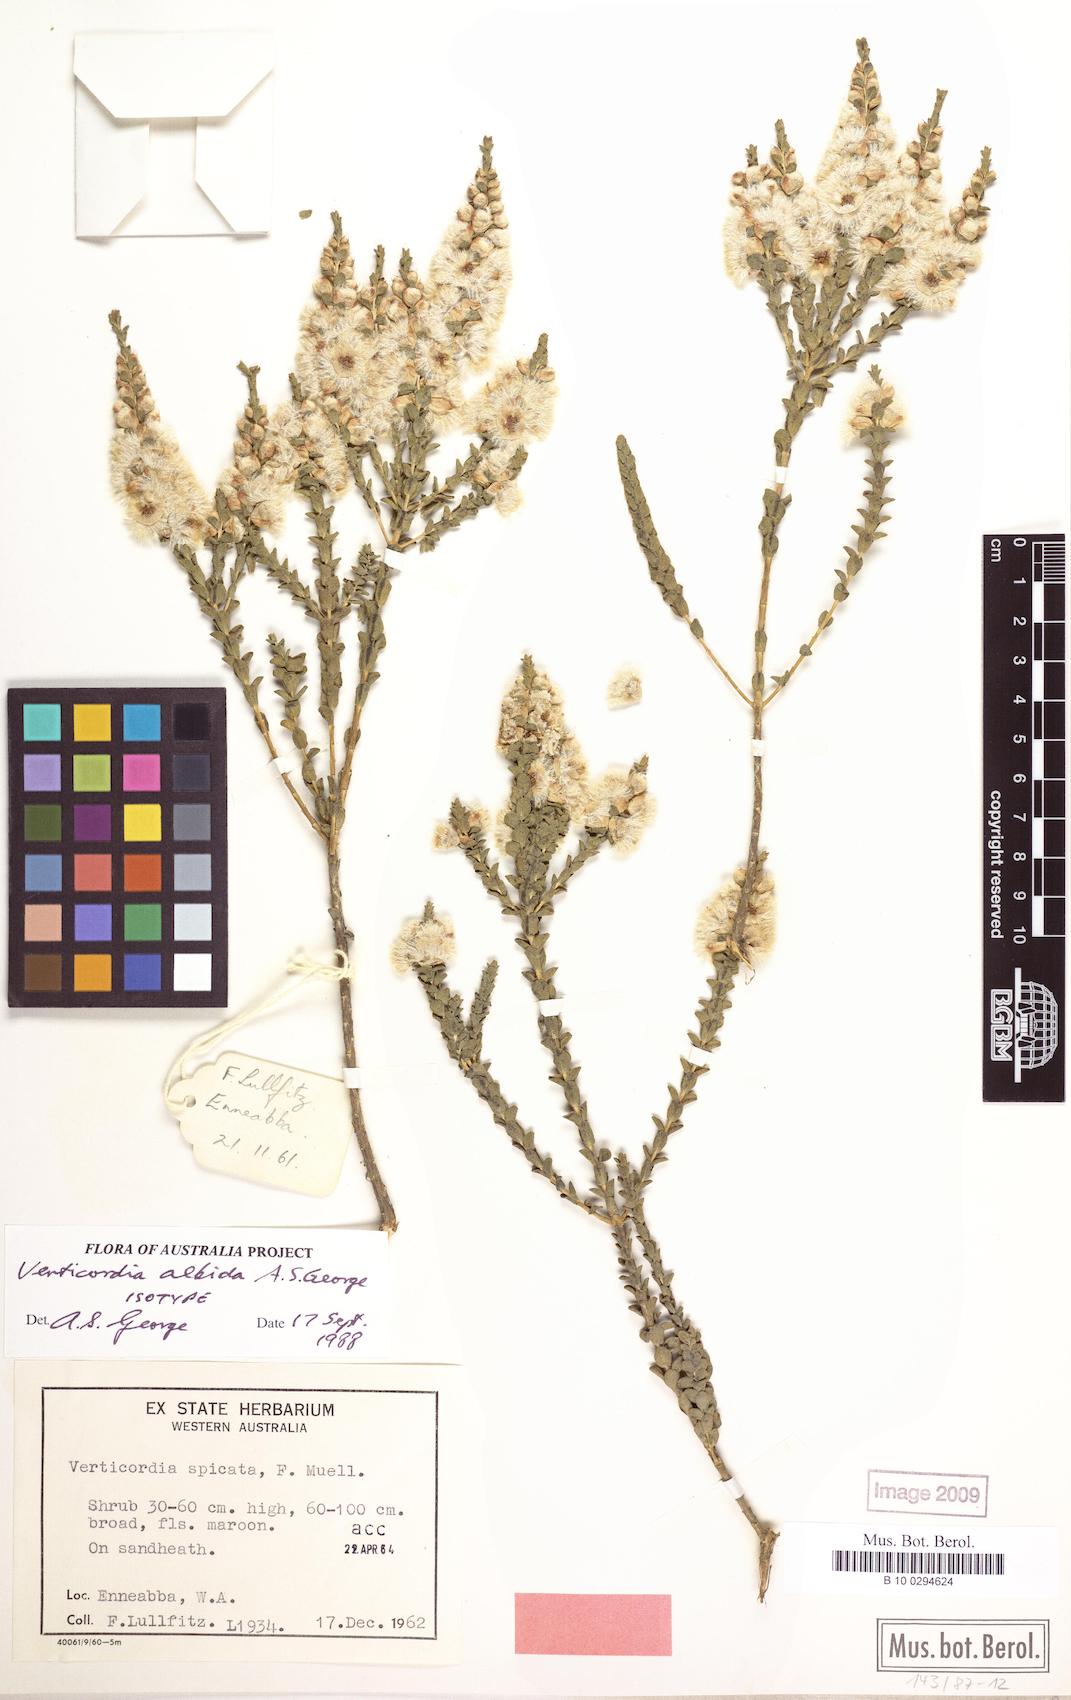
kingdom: Plantae
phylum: Tracheophyta
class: Magnoliopsida
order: Myrtales
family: Myrtaceae
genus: Verticordia
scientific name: Verticordia albida
